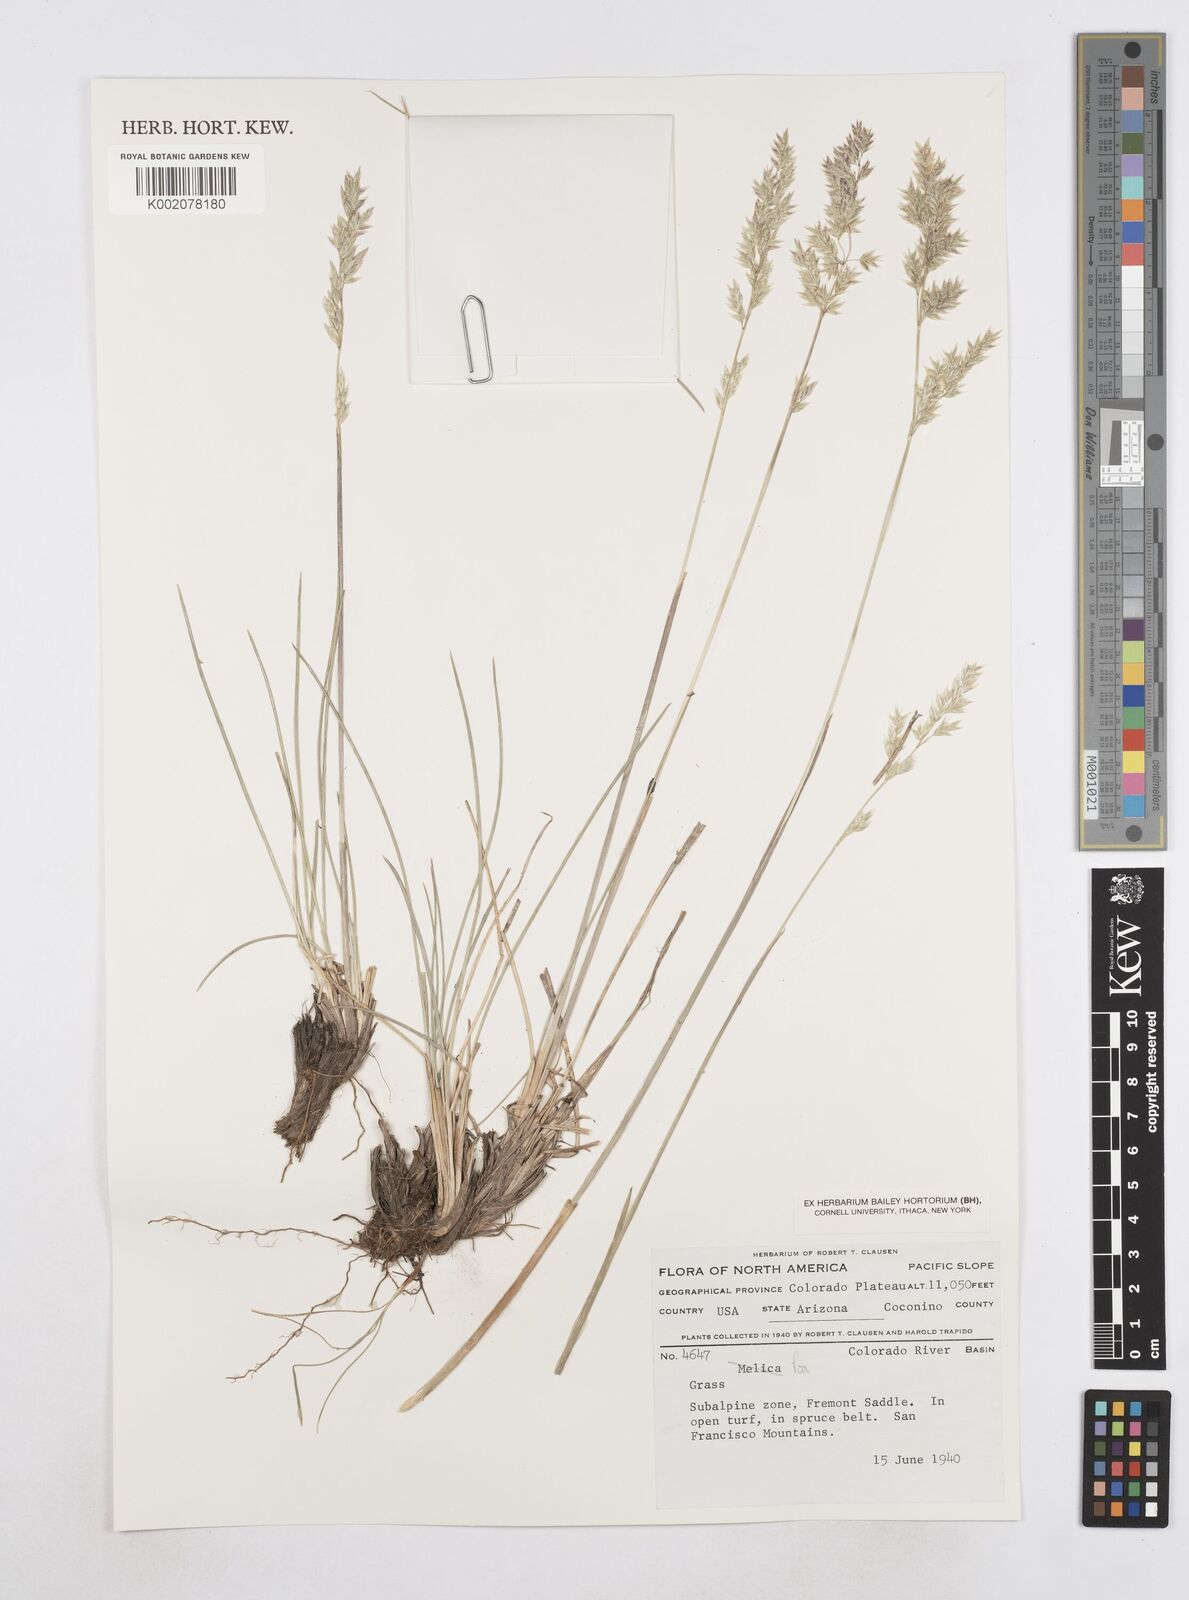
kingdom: Plantae
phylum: Tracheophyta
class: Liliopsida
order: Poales
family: Poaceae
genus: Poa
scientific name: Poa
